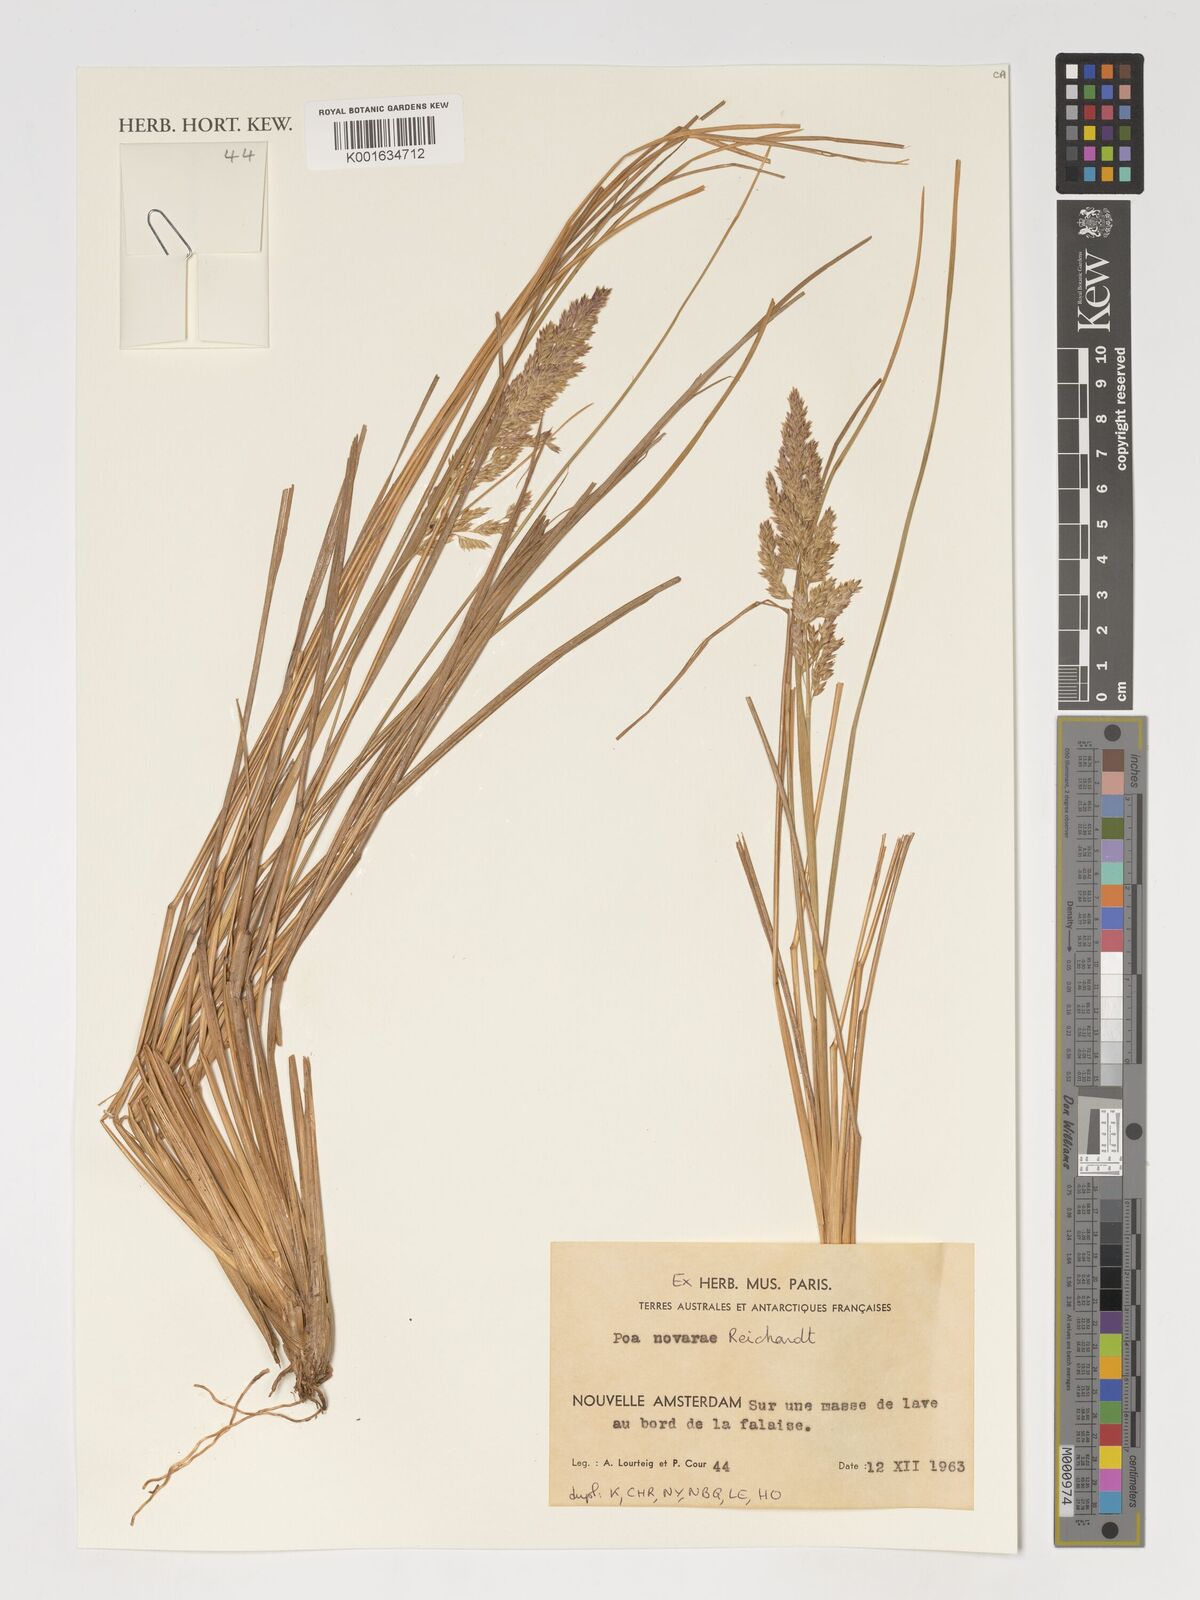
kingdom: Plantae
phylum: Tracheophyta
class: Liliopsida
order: Poales
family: Poaceae
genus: Poa
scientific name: Poa novarae
